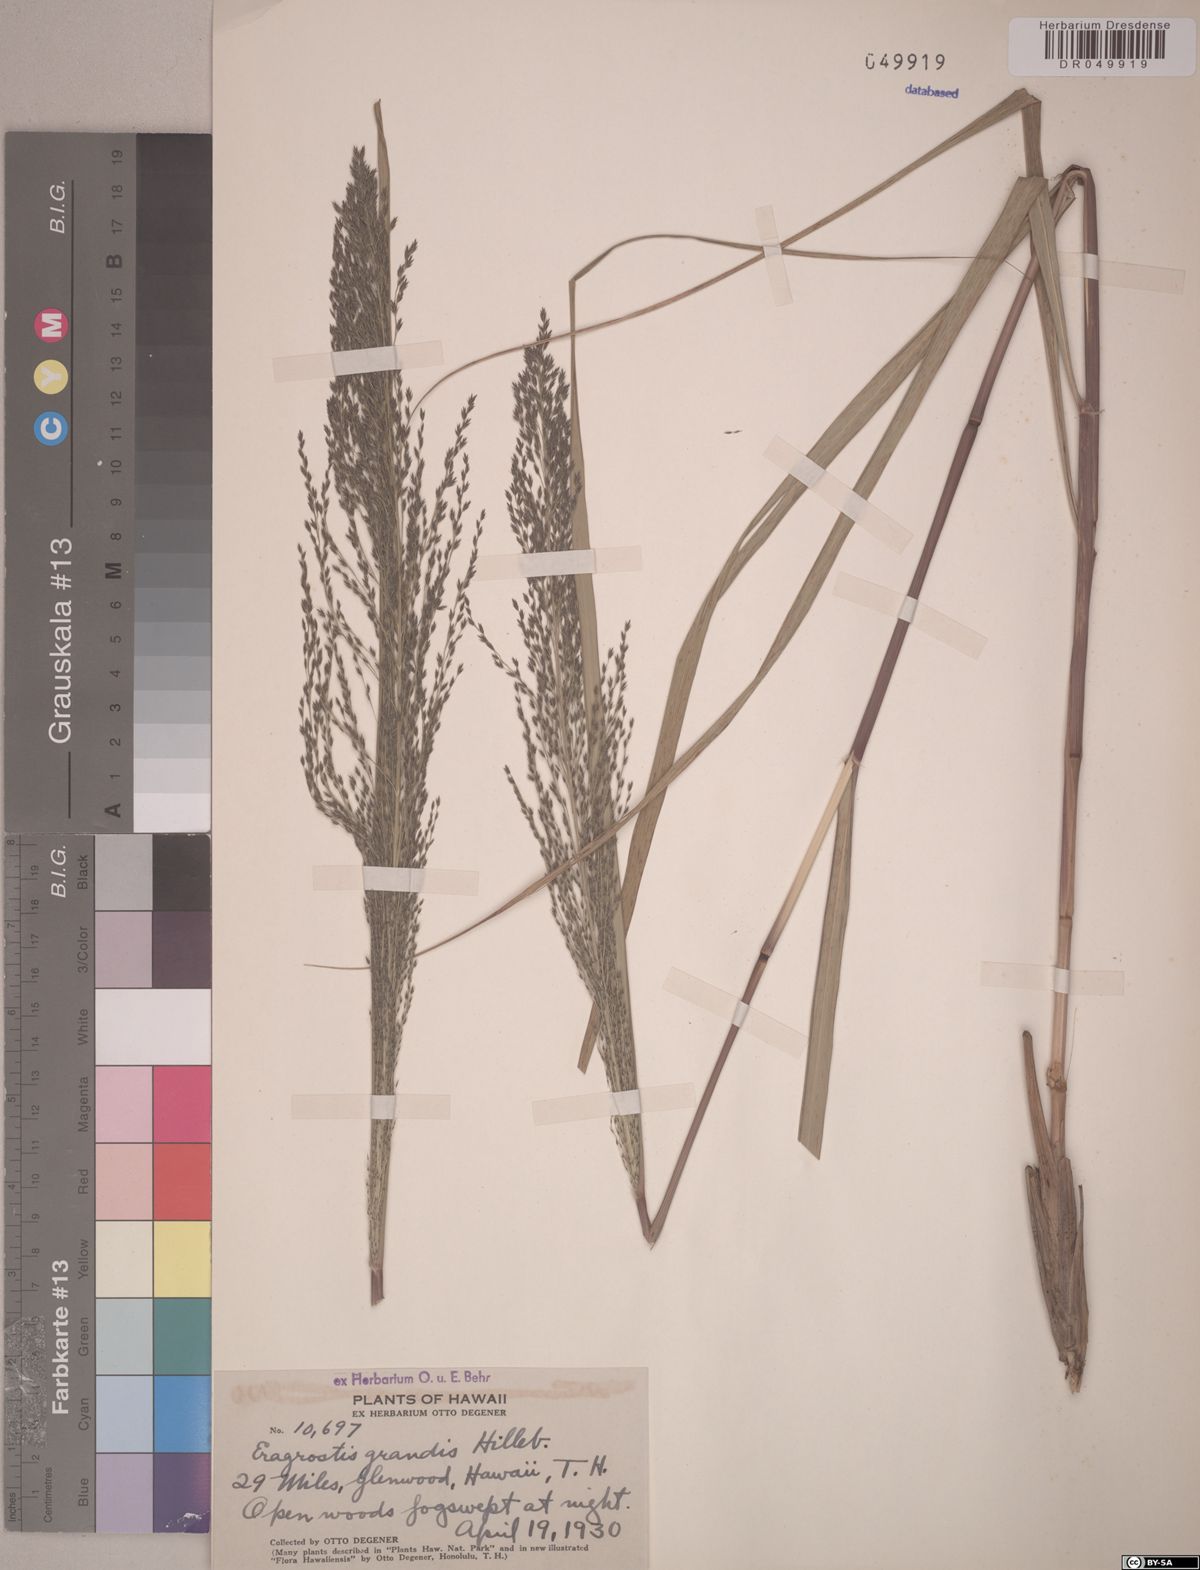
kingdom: Plantae
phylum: Tracheophyta
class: Liliopsida
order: Poales
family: Poaceae
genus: Eragrostis
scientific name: Eragrostis grandis
